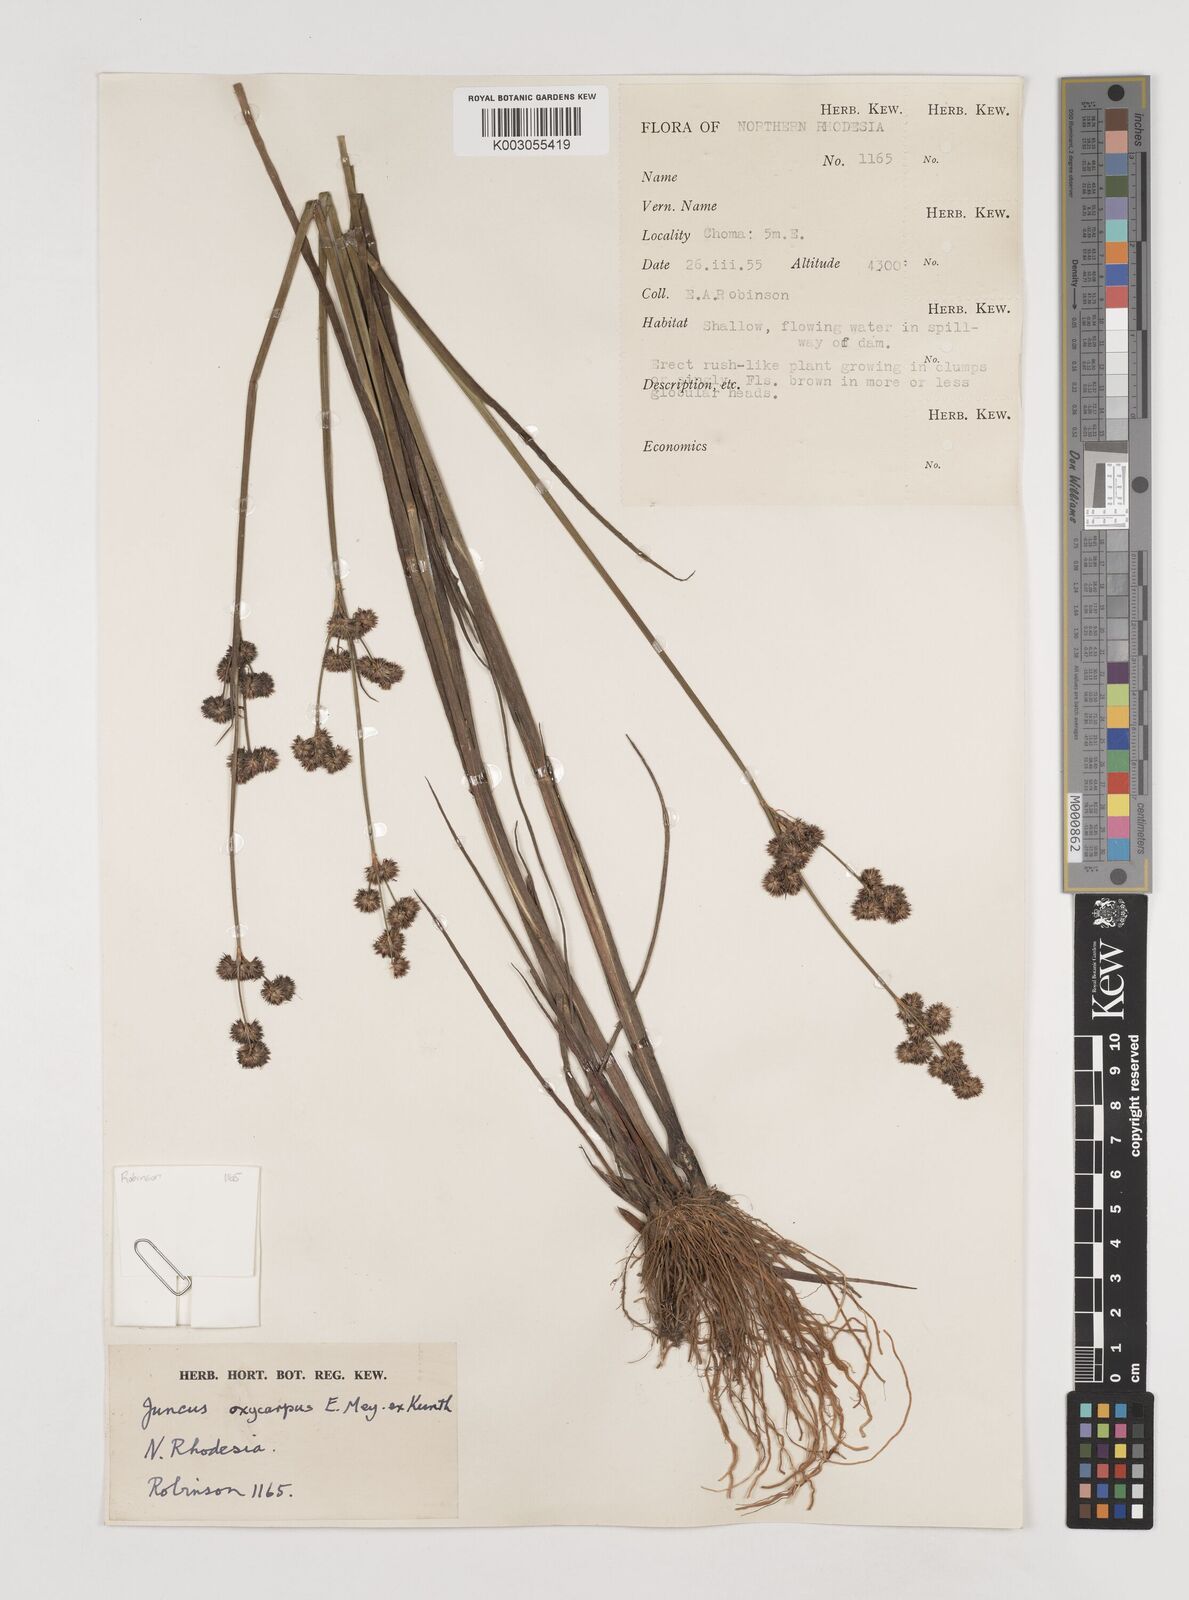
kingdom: Plantae
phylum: Tracheophyta
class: Liliopsida
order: Poales
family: Juncaceae
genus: Juncus
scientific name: Juncus oxycarpus
